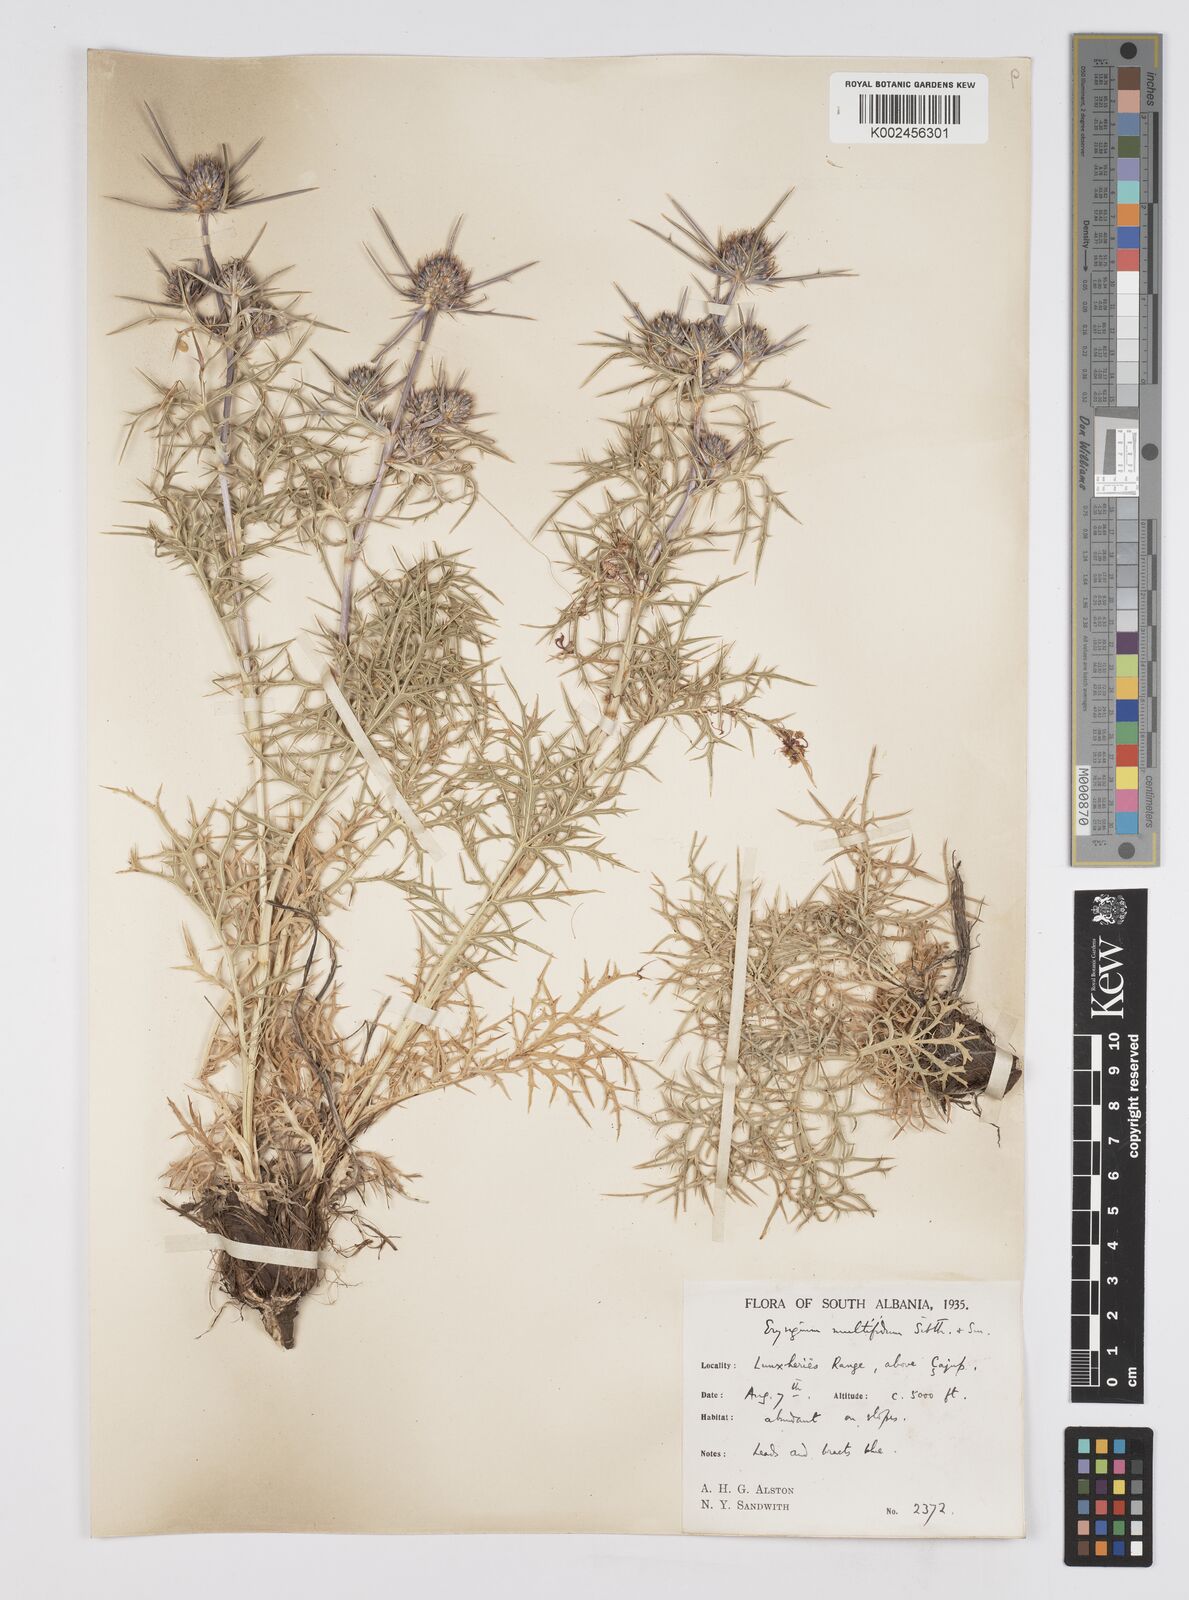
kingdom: Plantae
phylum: Tracheophyta
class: Magnoliopsida
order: Apiales
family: Apiaceae
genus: Eryngium
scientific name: Eryngium amethystinum
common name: Amethyst eryngo
